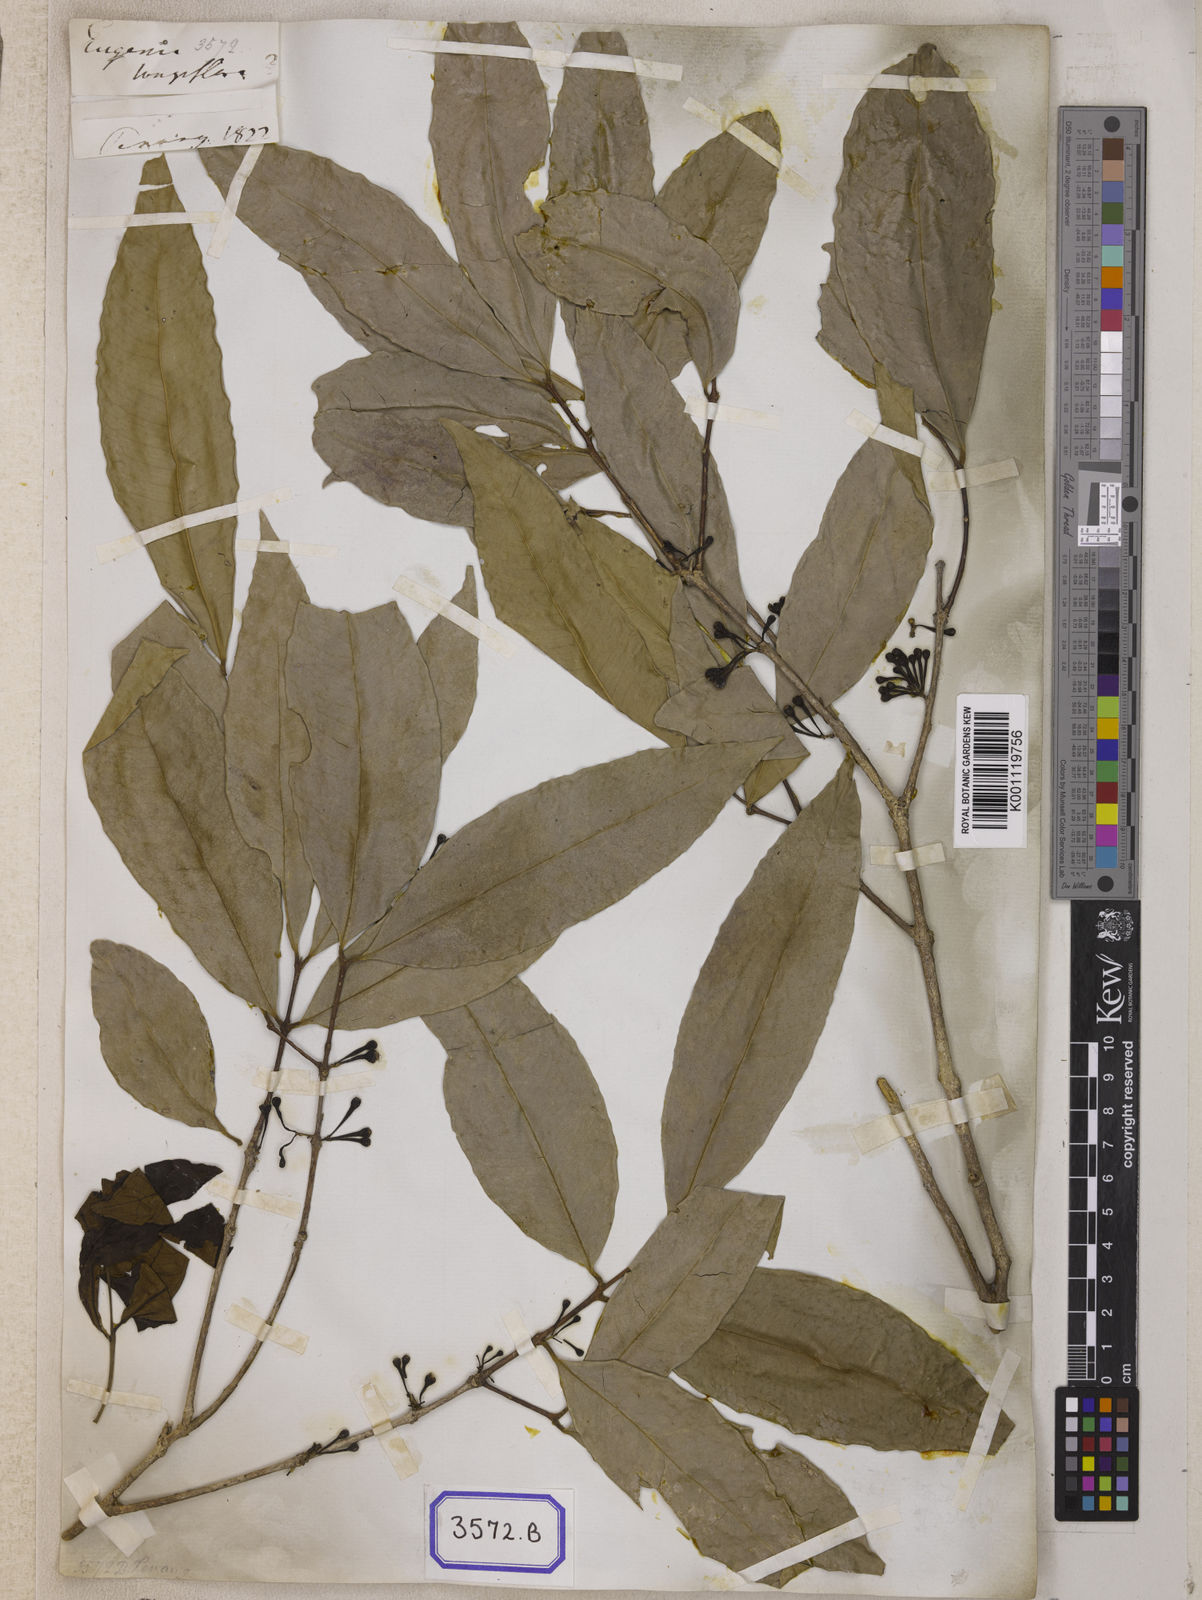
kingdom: Plantae
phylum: Tracheophyta
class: Magnoliopsida
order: Myrtales
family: Myrtaceae
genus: Syzygium
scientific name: Syzygium
